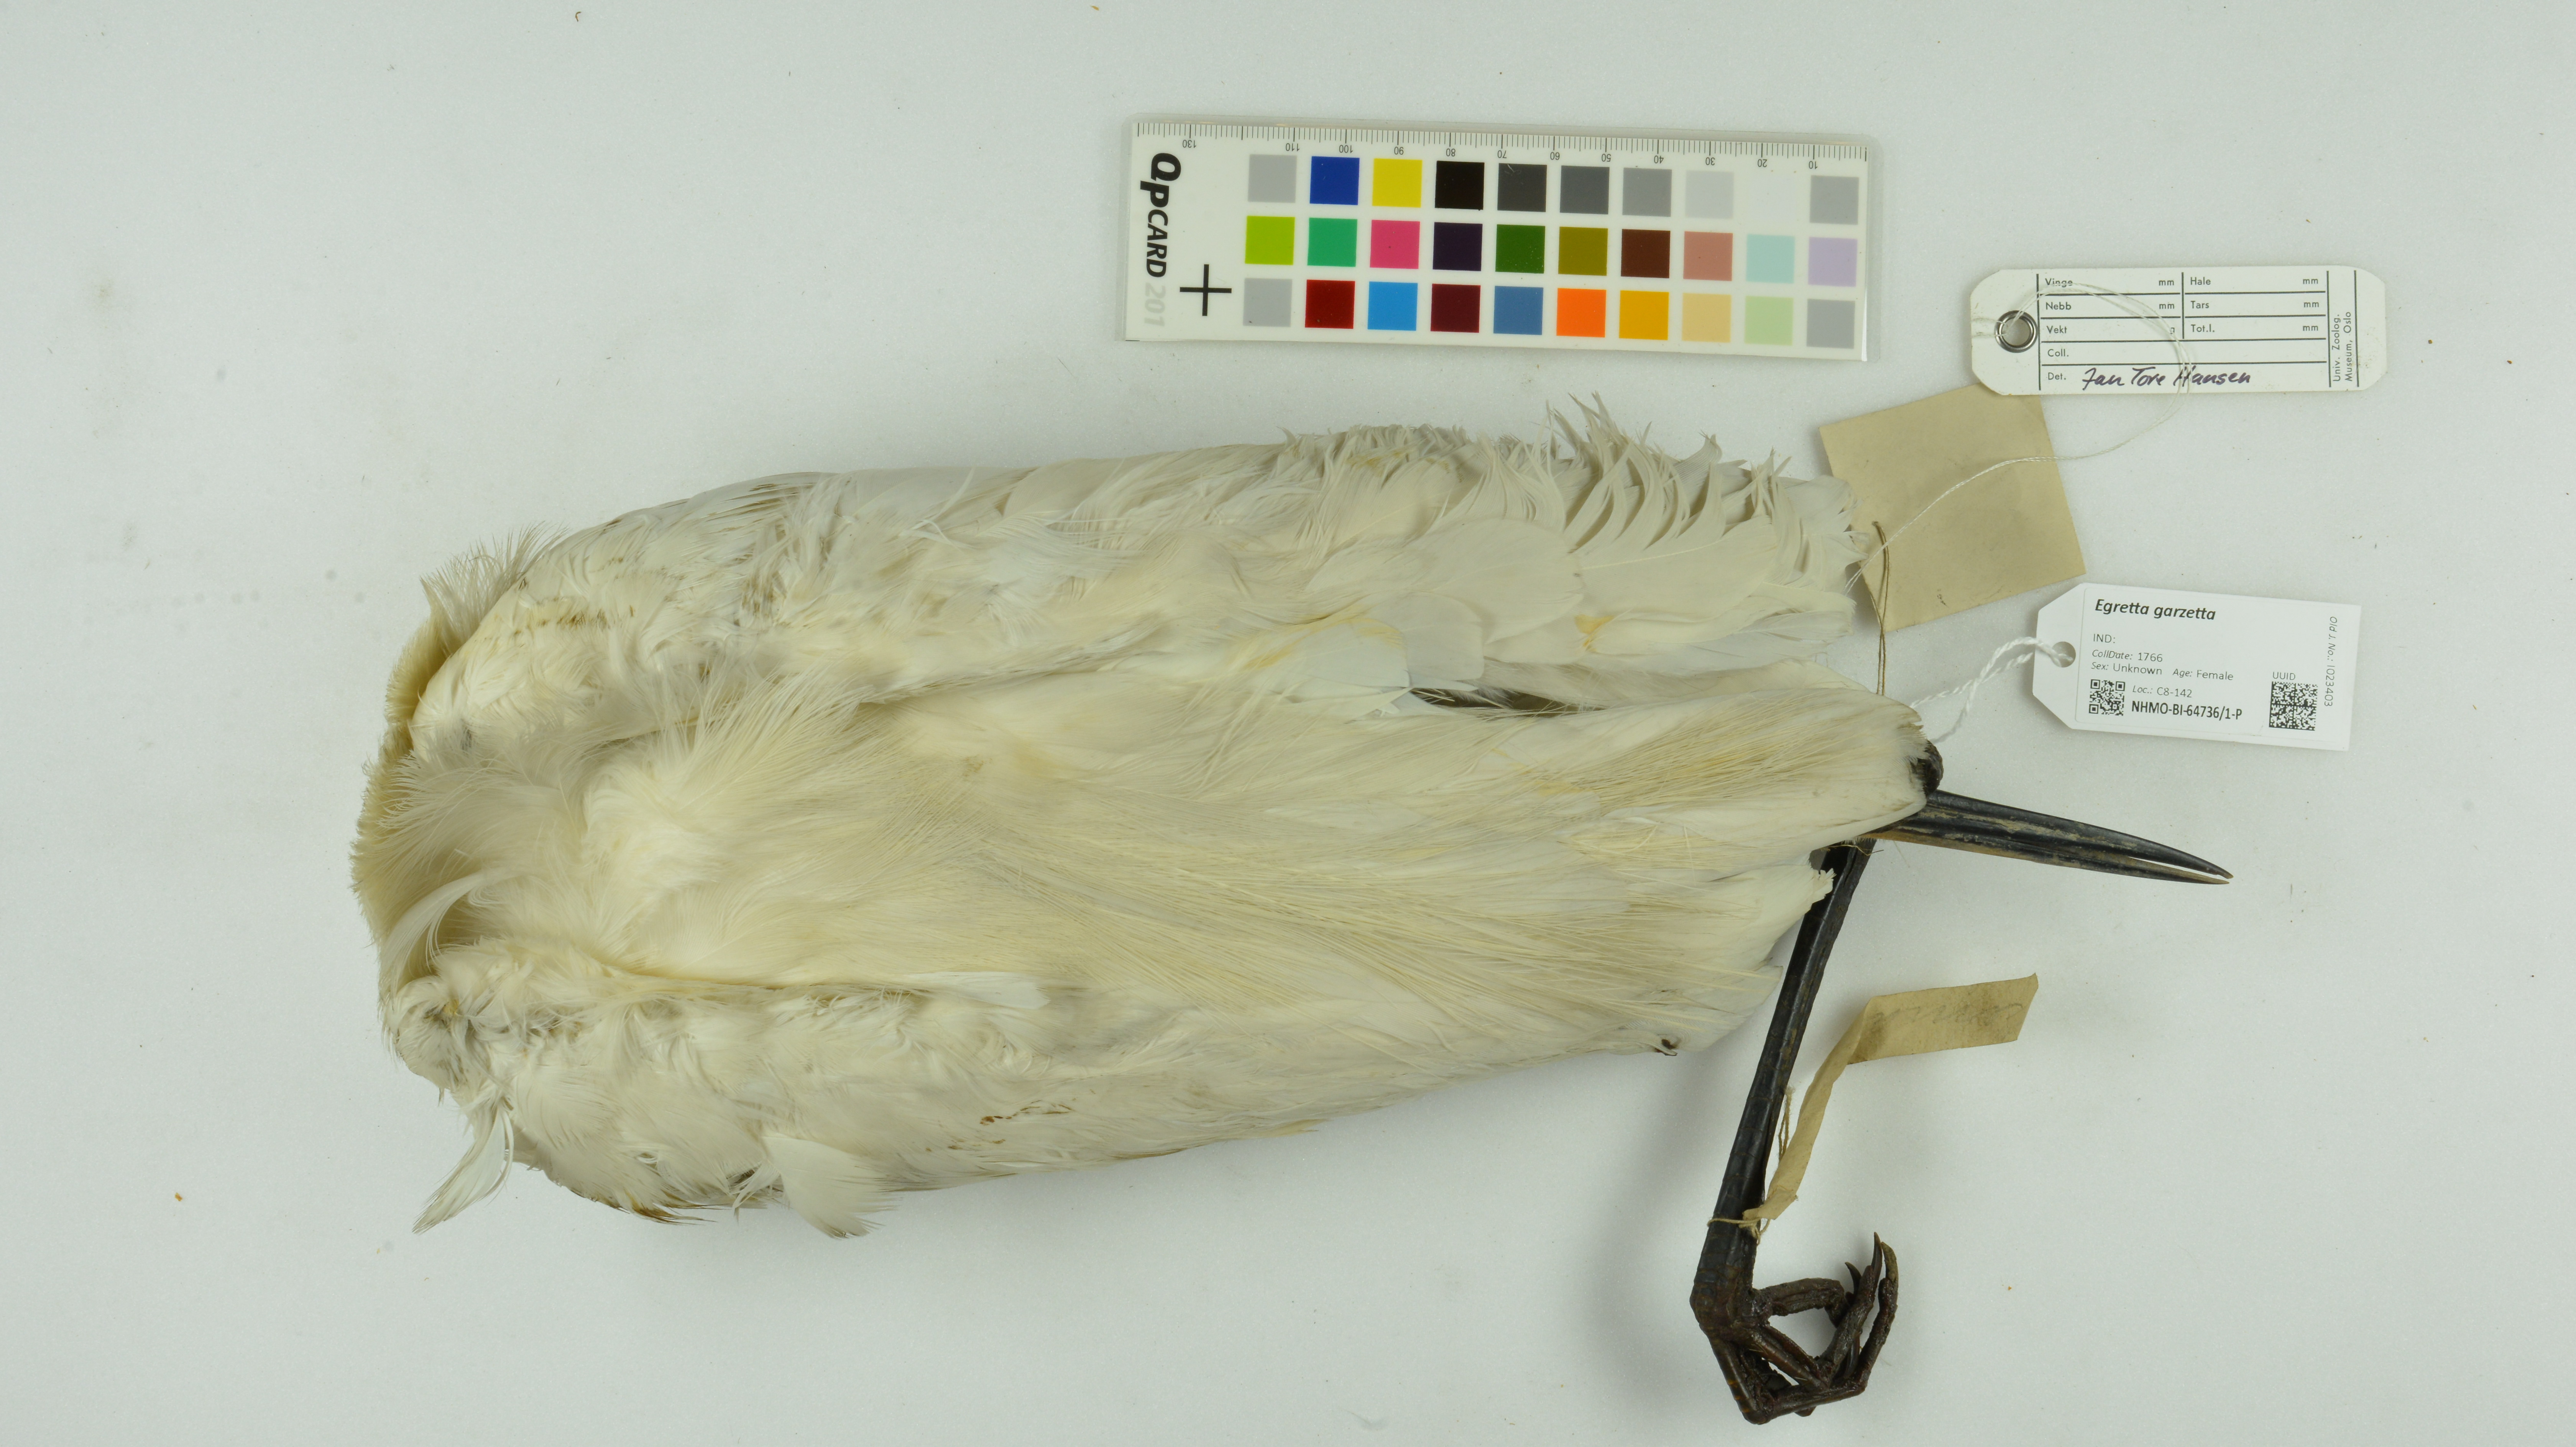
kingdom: Animalia
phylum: Chordata
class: Aves
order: Pelecaniformes
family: Ardeidae
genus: Egretta
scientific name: Egretta garzetta
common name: Little egret
